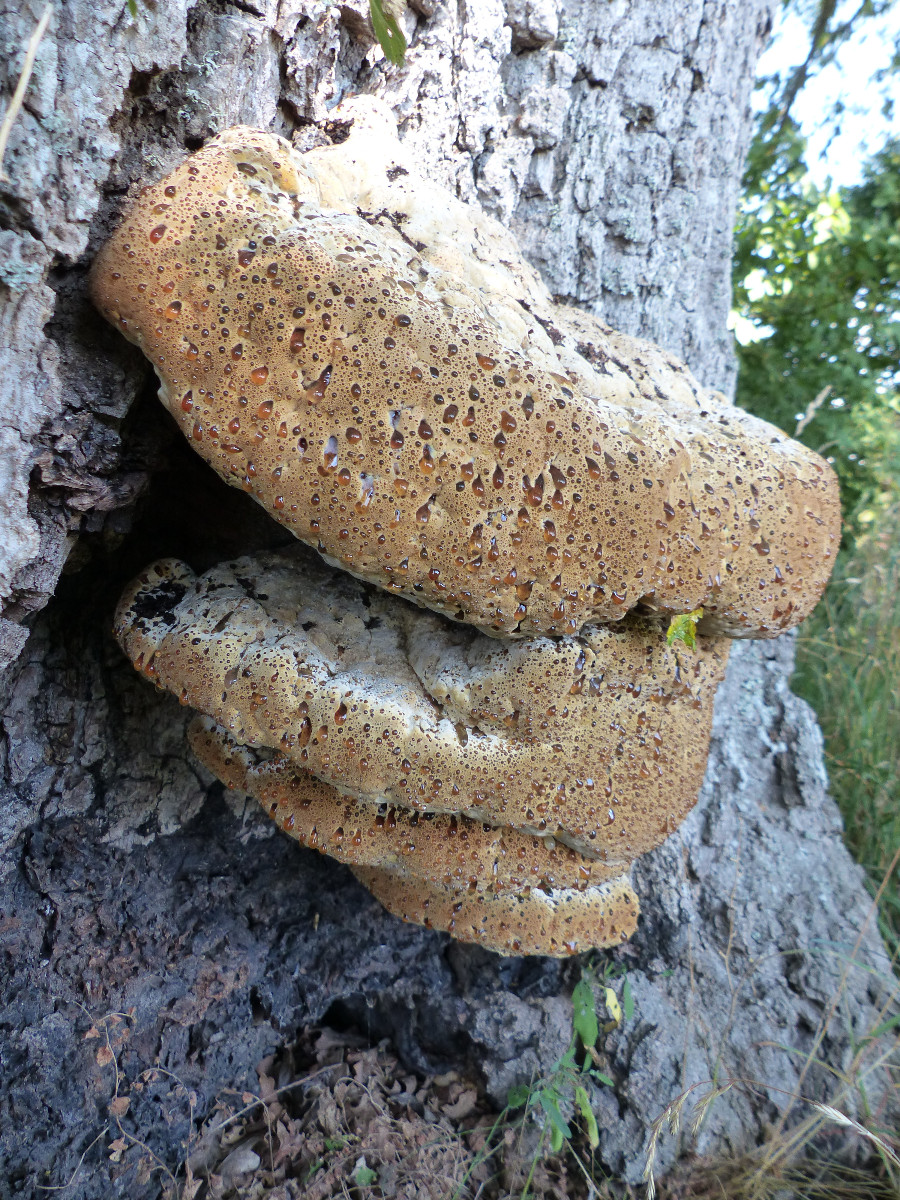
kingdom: Fungi
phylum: Basidiomycota
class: Agaricomycetes
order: Hymenochaetales
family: Hymenochaetaceae
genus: Pseudoinonotus
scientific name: Pseudoinonotus dryadeus
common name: ege-spejlporesvamp
